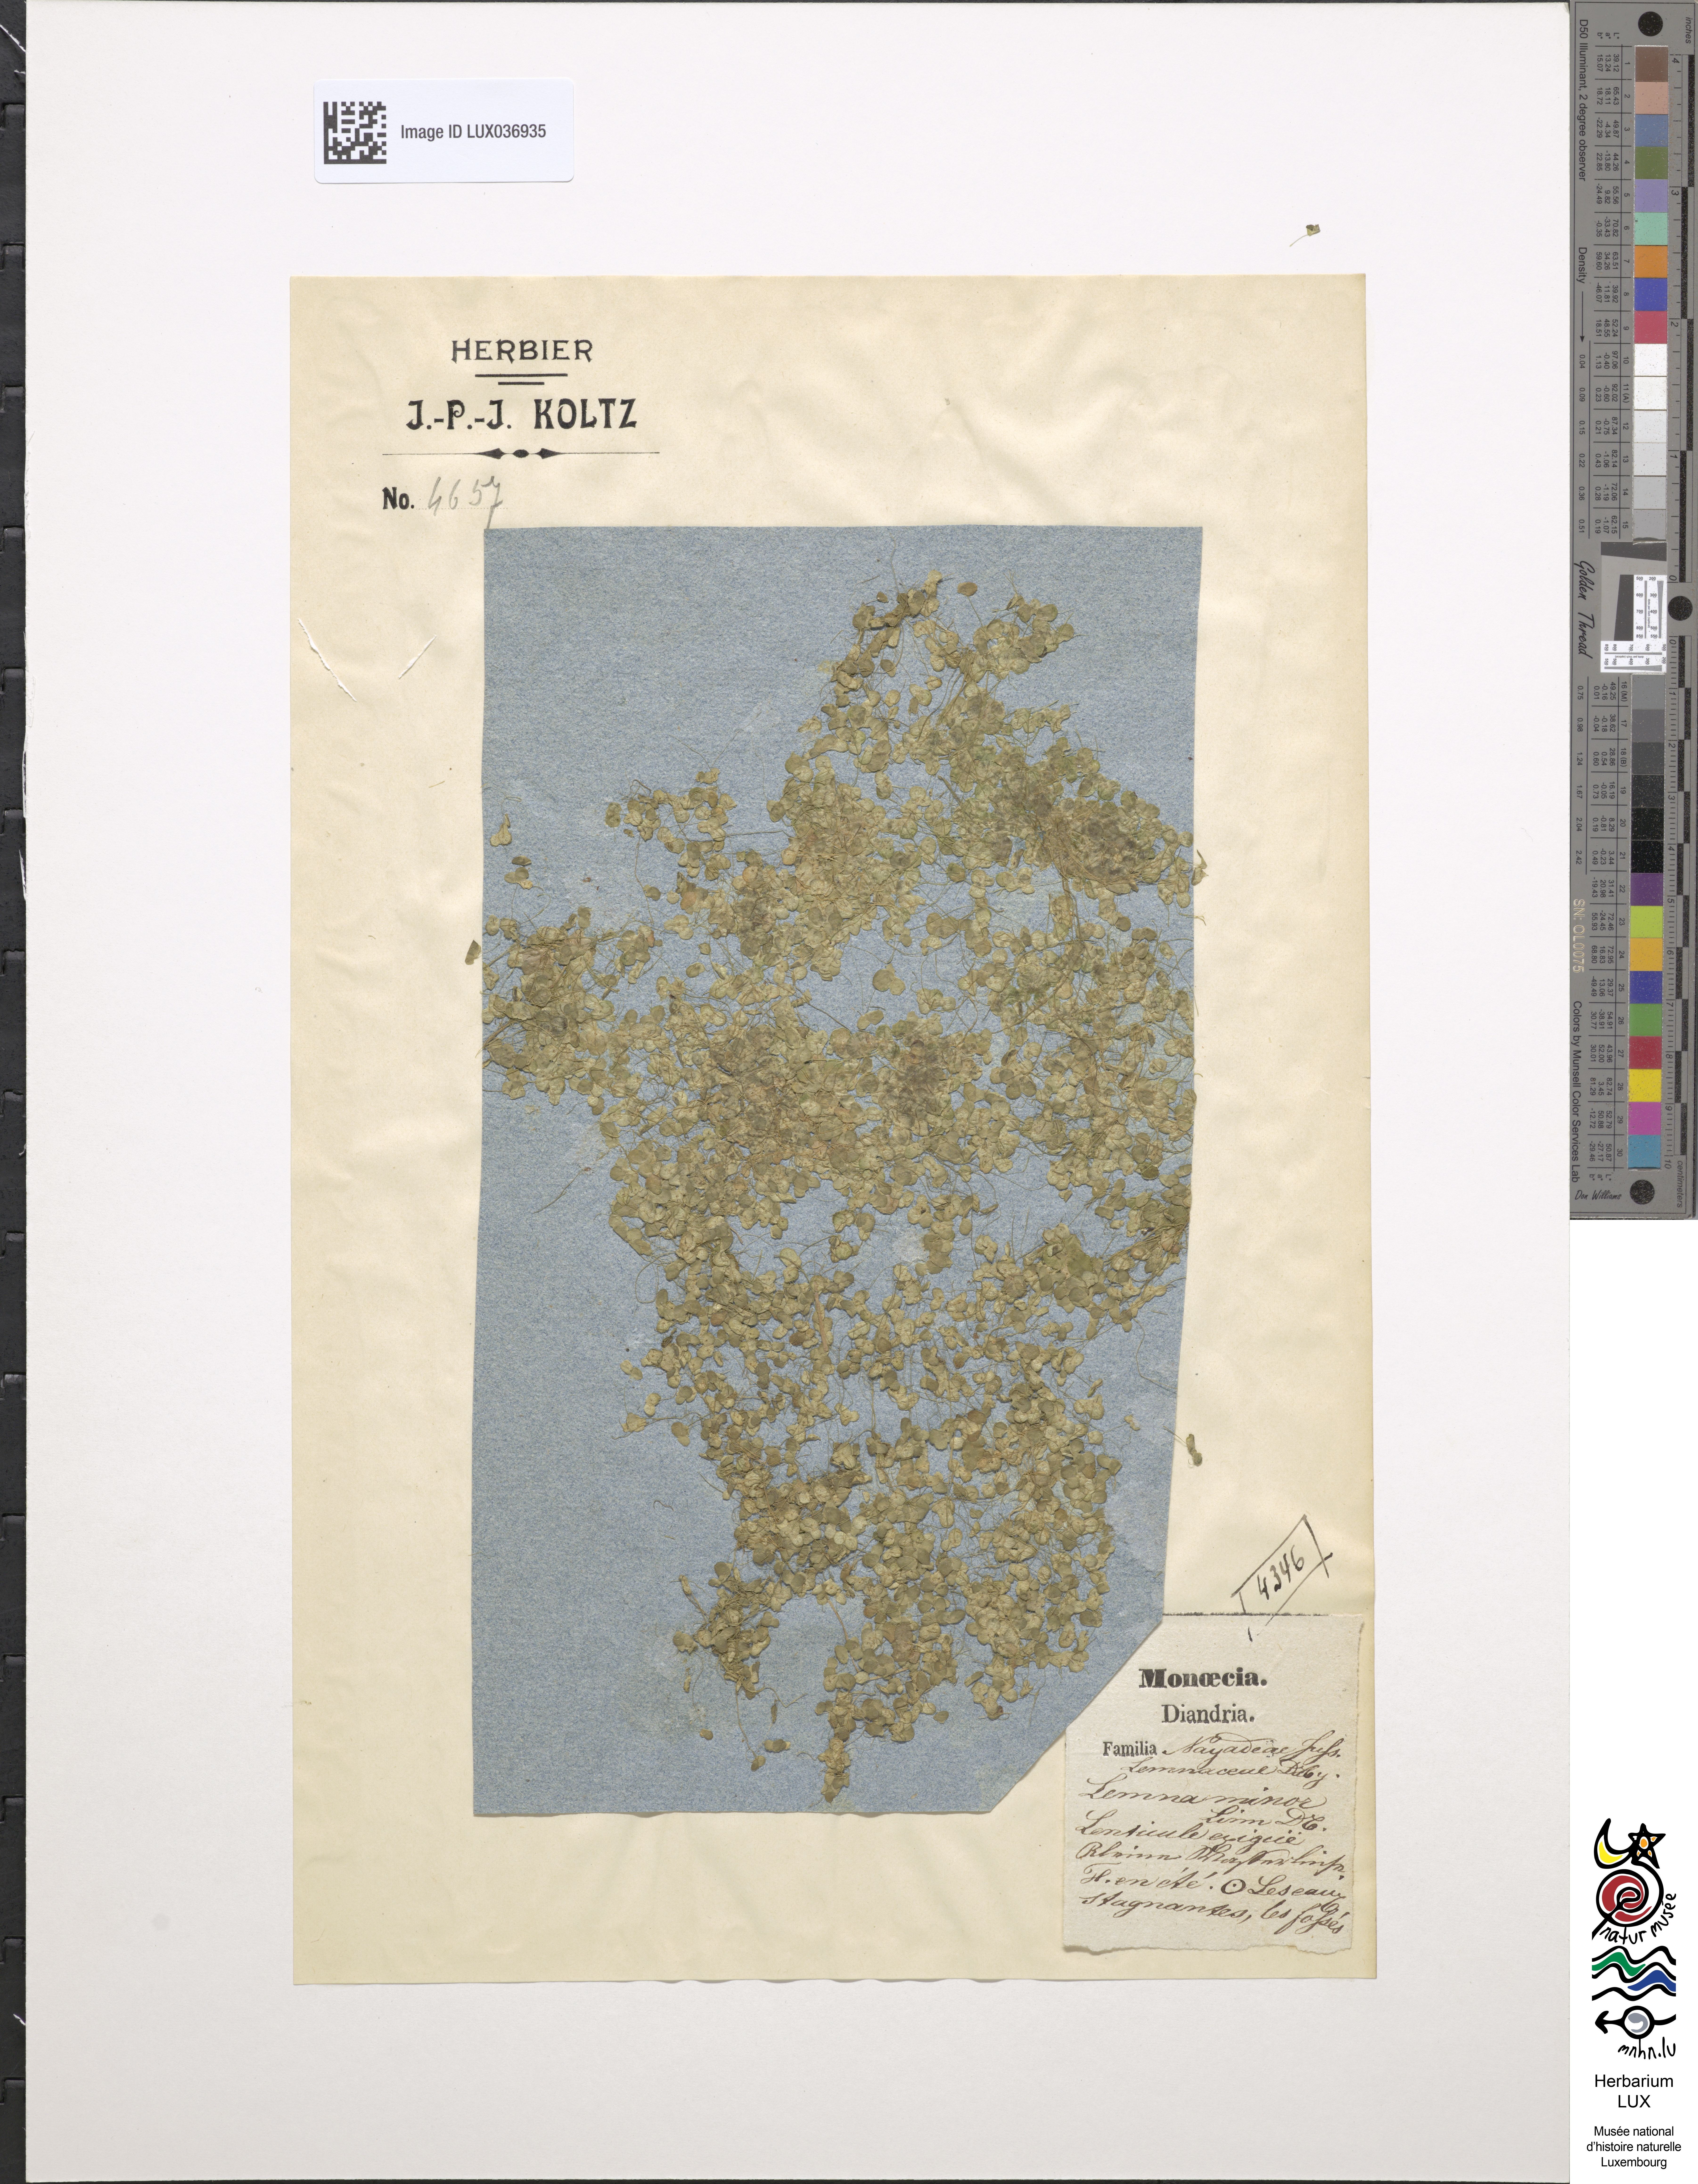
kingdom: Plantae
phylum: Tracheophyta
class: Liliopsida
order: Alismatales
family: Araceae
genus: Lemna
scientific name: Lemna minor
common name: Common duckweed
